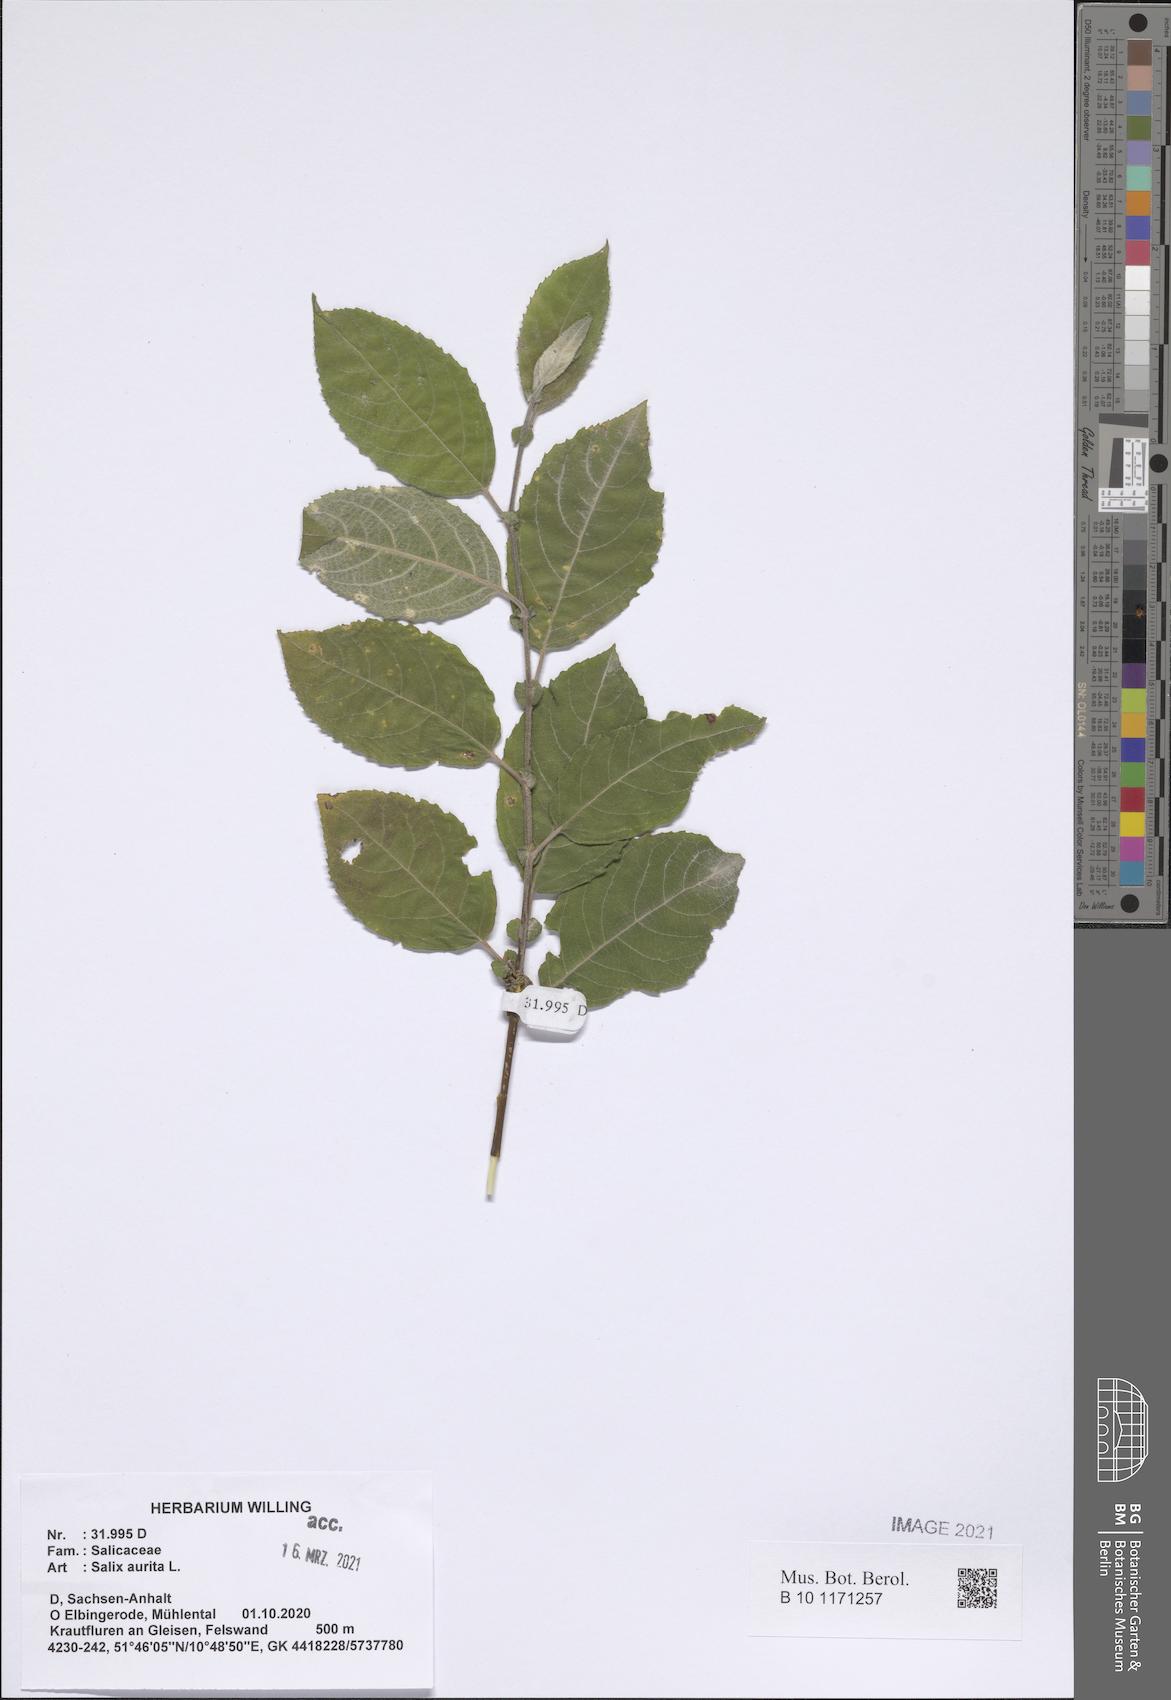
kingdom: Plantae
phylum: Tracheophyta
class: Magnoliopsida
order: Malpighiales
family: Salicaceae
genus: Salix
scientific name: Salix aurita
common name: Eared willow
